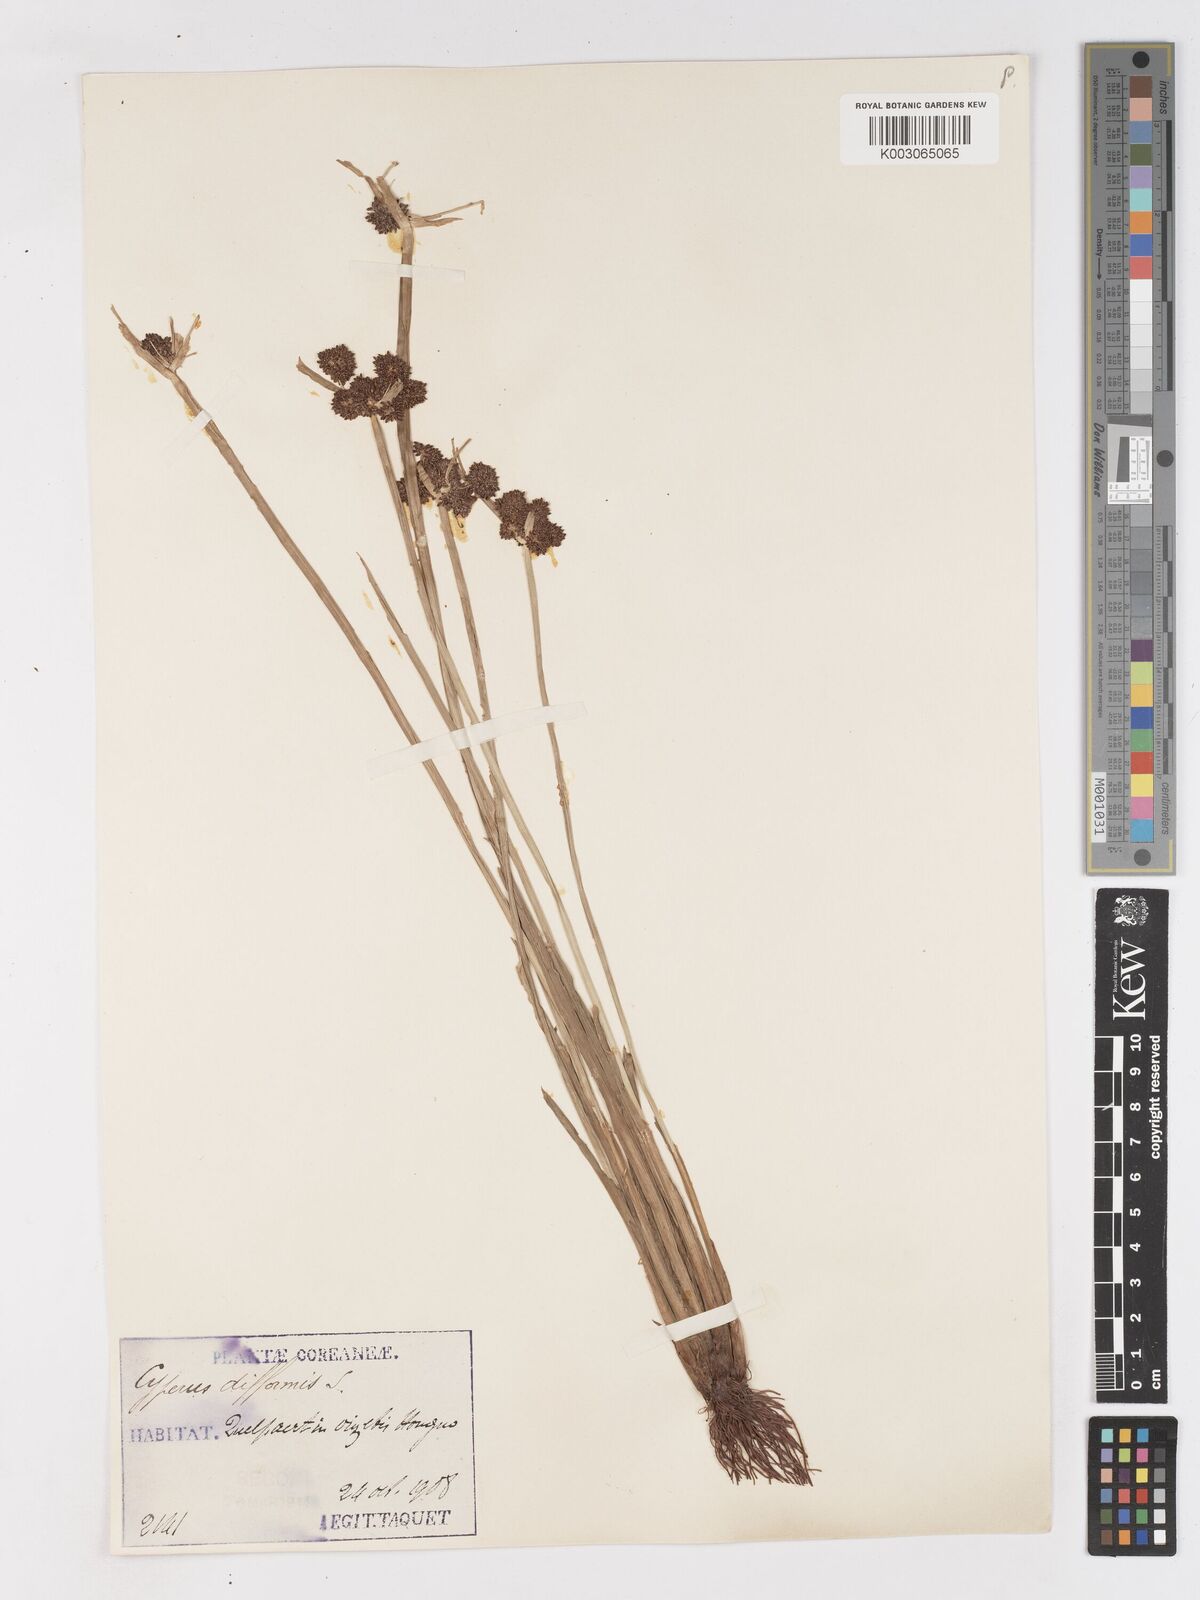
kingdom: Plantae
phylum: Tracheophyta
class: Liliopsida
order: Poales
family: Cyperaceae
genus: Cyperus
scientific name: Cyperus difformis
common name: Variable flatsedge
